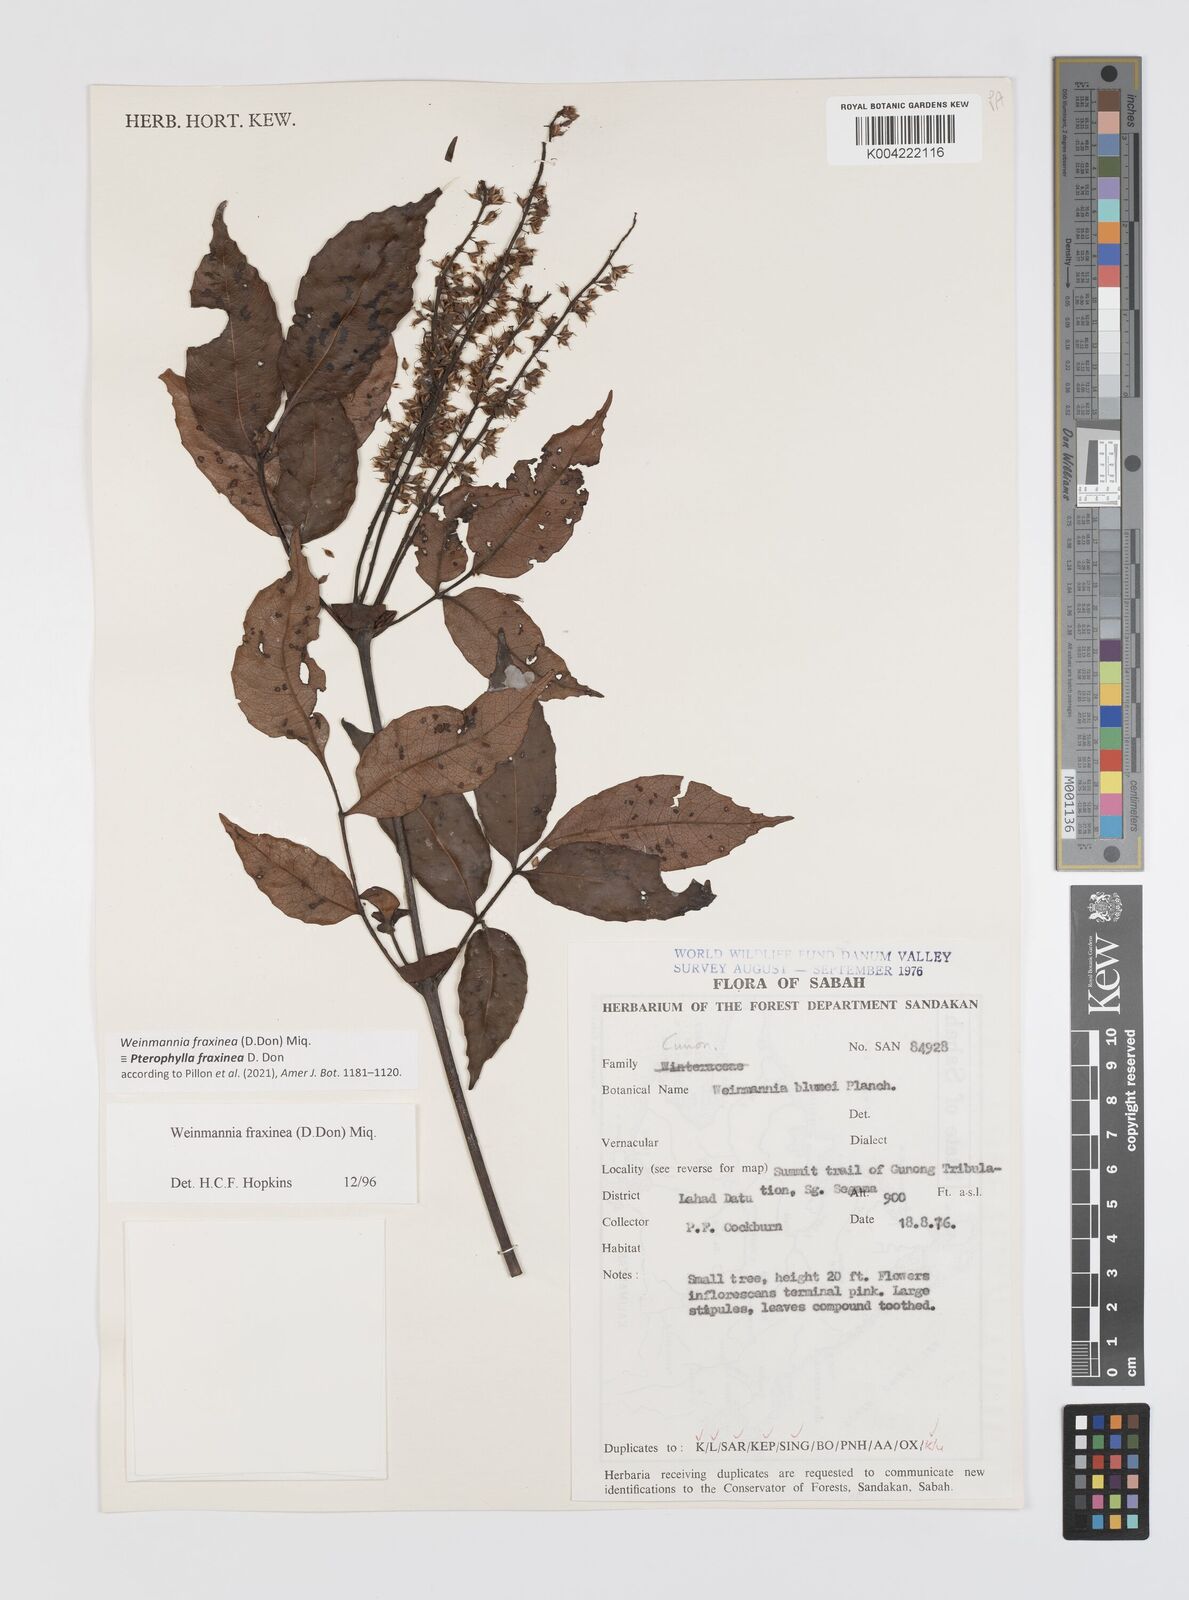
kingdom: Plantae
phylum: Tracheophyta
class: Magnoliopsida
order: Oxalidales
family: Cunoniaceae
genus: Pterophylla
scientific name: Pterophylla fraxinea
